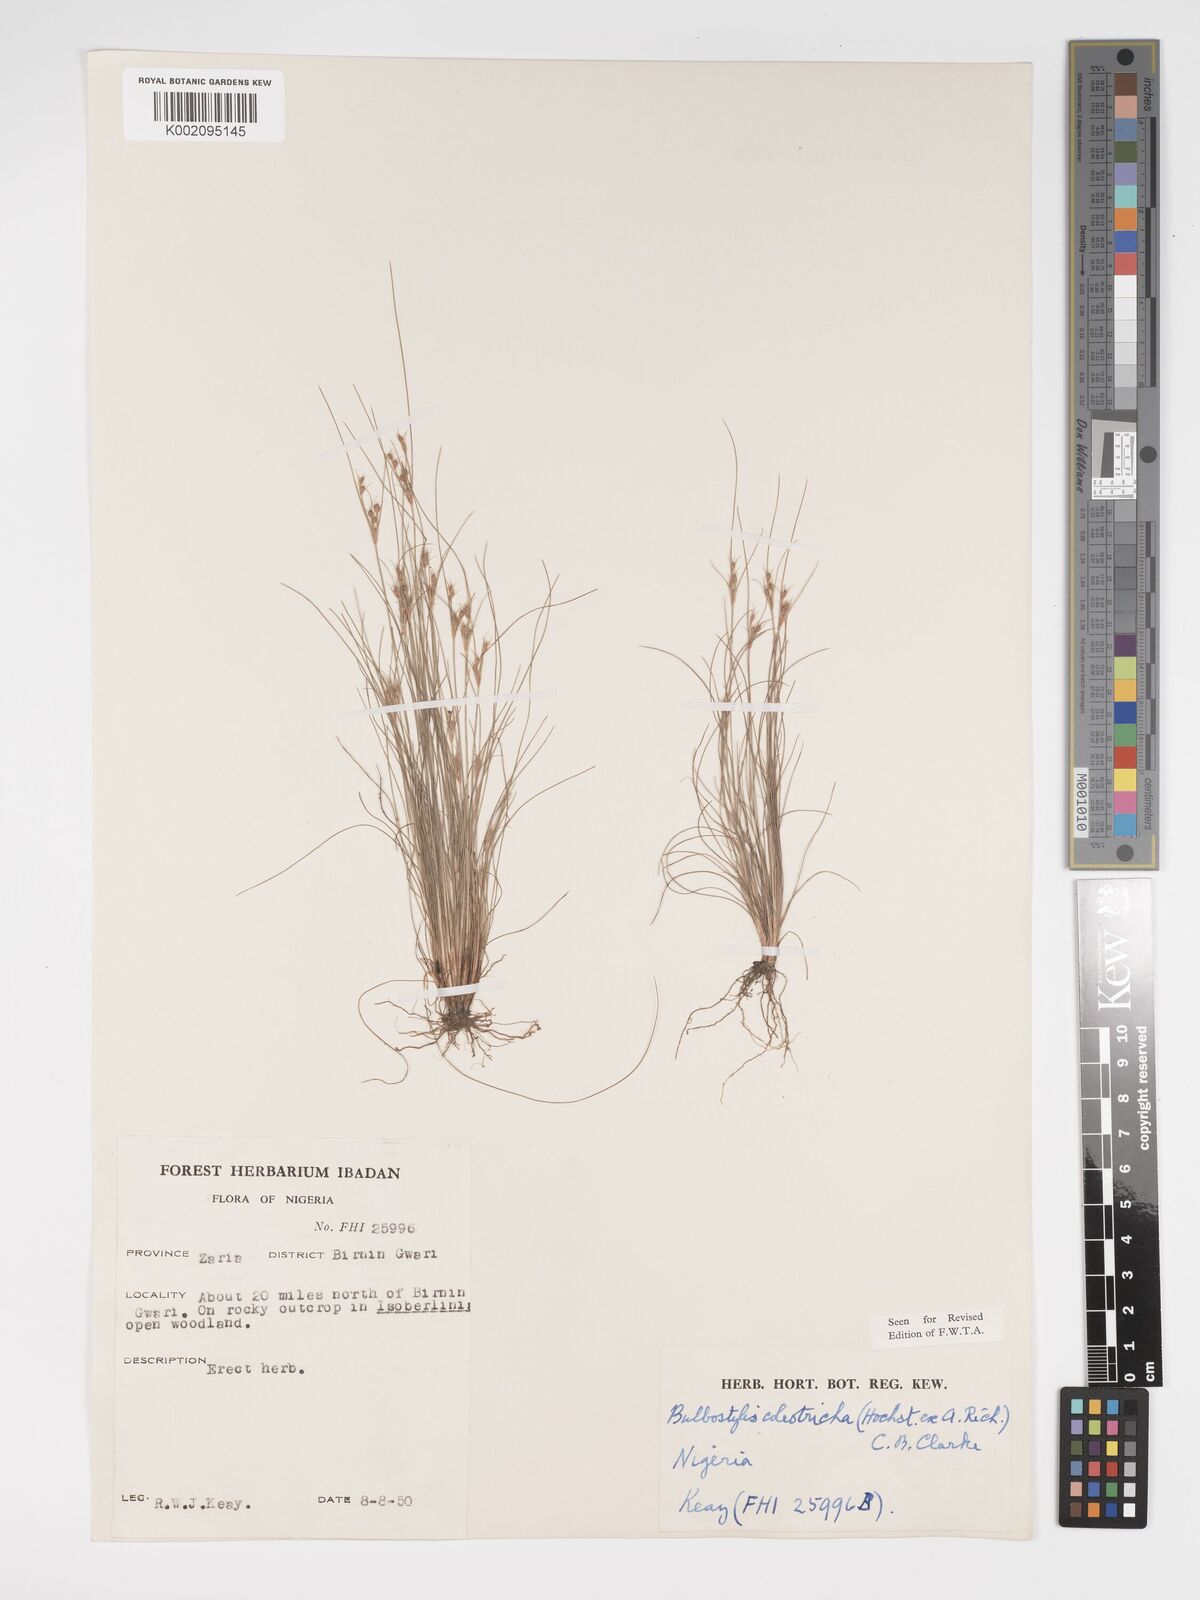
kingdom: Plantae
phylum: Tracheophyta
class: Liliopsida
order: Poales
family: Cyperaceae
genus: Bulbostylis
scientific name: Bulbostylis coleotricha
